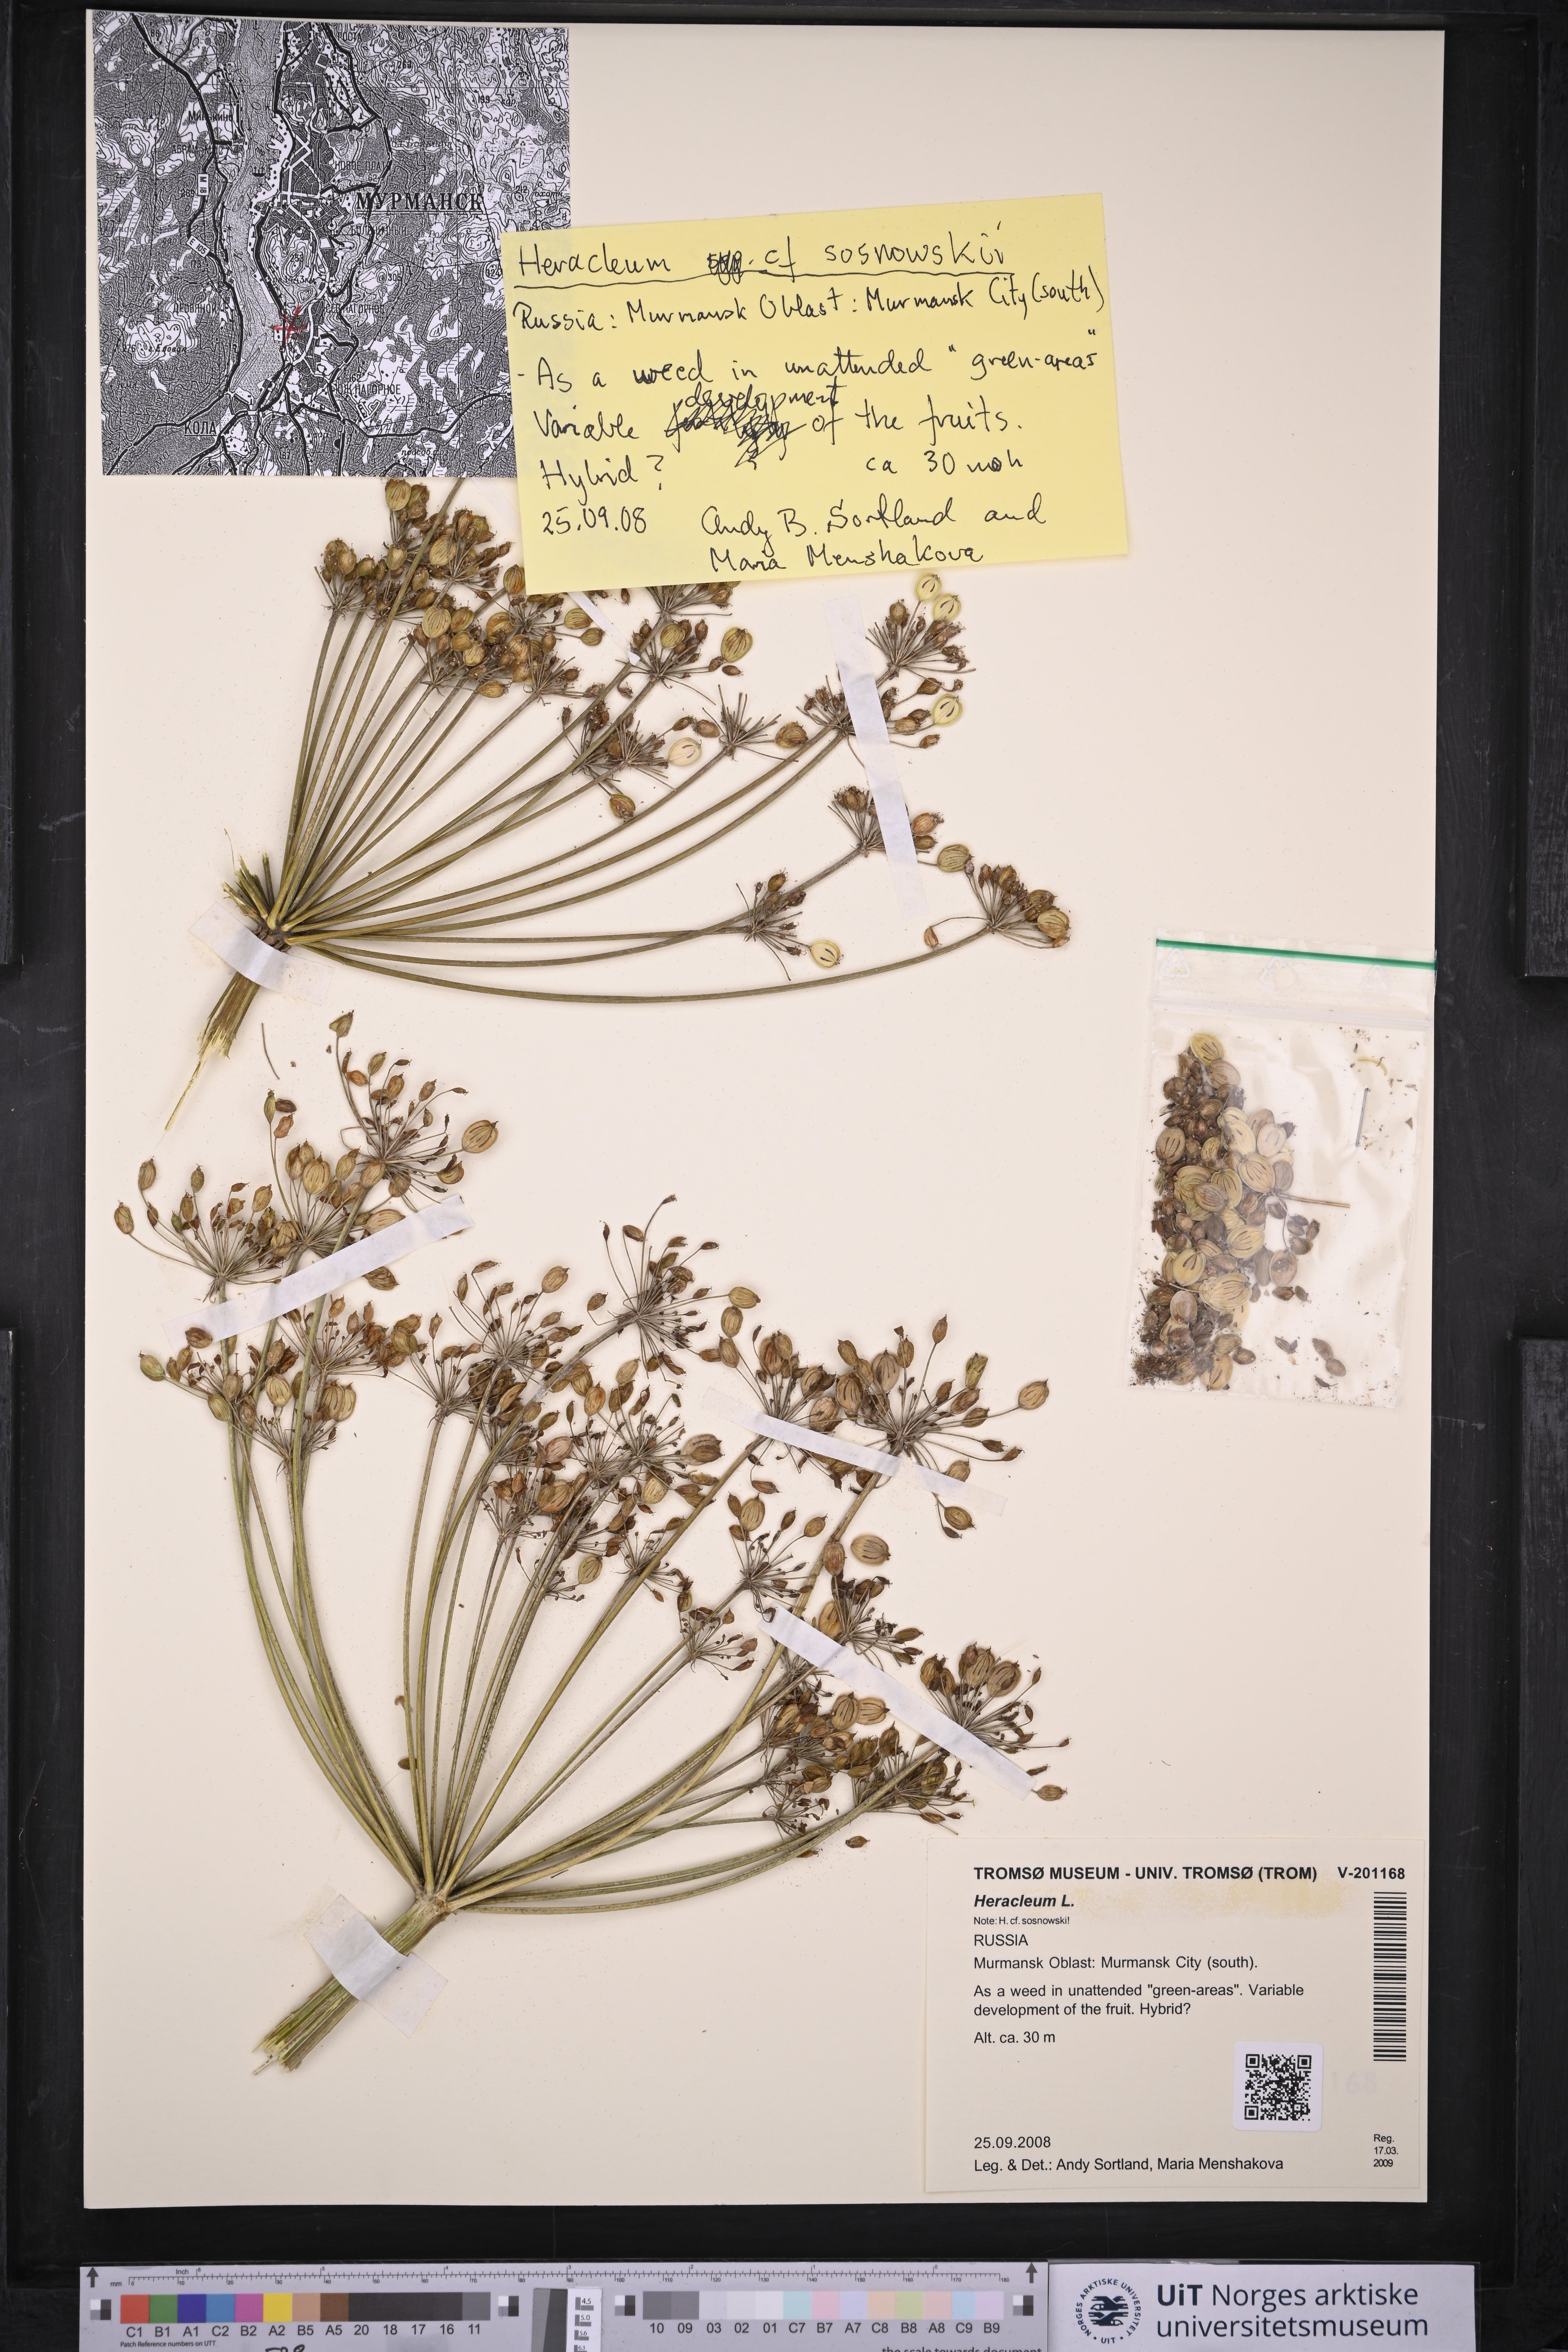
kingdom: Plantae
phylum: Tracheophyta
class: Magnoliopsida
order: Apiales
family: Apiaceae
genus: Heracleum
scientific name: Heracleum
